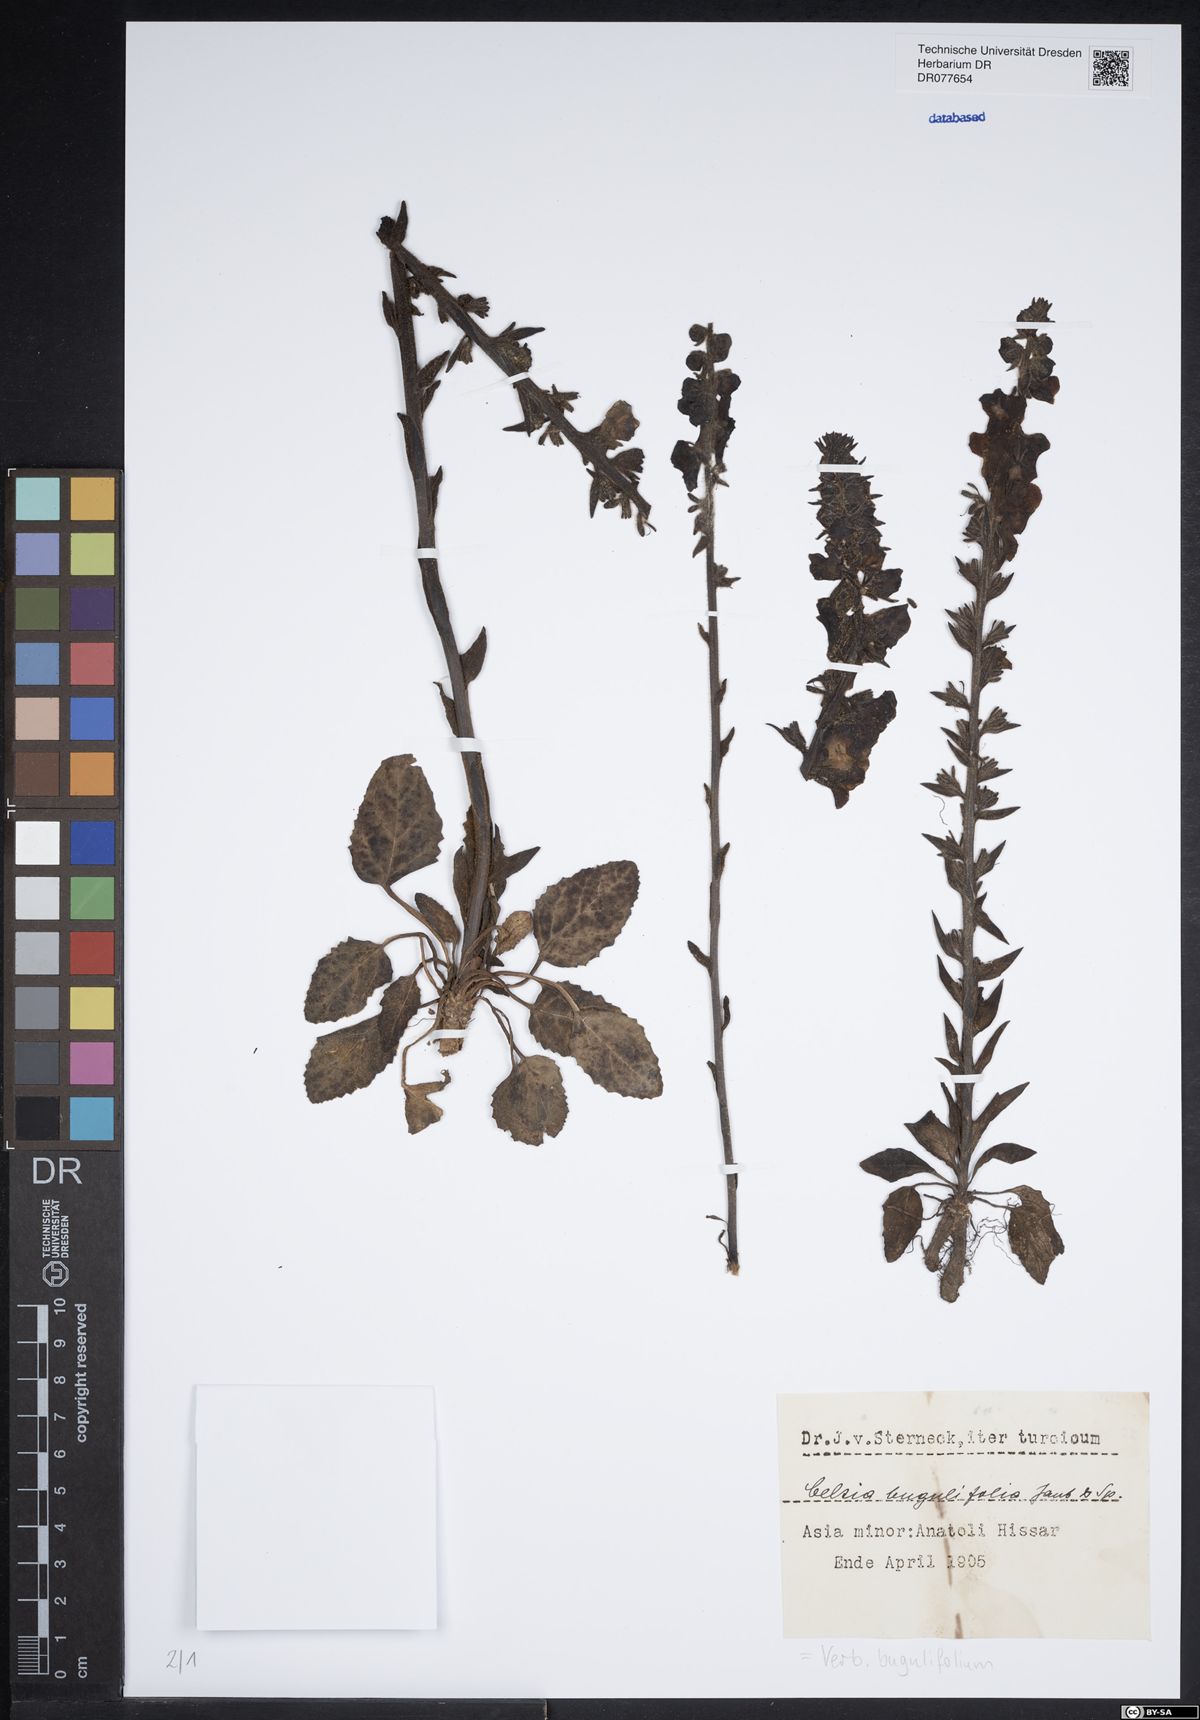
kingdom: Plantae
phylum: Tracheophyta
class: Magnoliopsida
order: Lamiales
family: Scrophulariaceae
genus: Verbascum
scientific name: Verbascum bugulifolium
